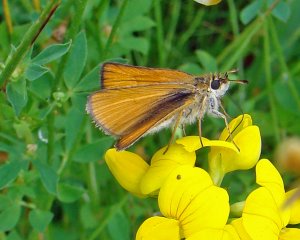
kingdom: Animalia
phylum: Arthropoda
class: Insecta
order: Lepidoptera
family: Hesperiidae
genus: Thymelicus
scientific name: Thymelicus lineola
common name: European Skipper
